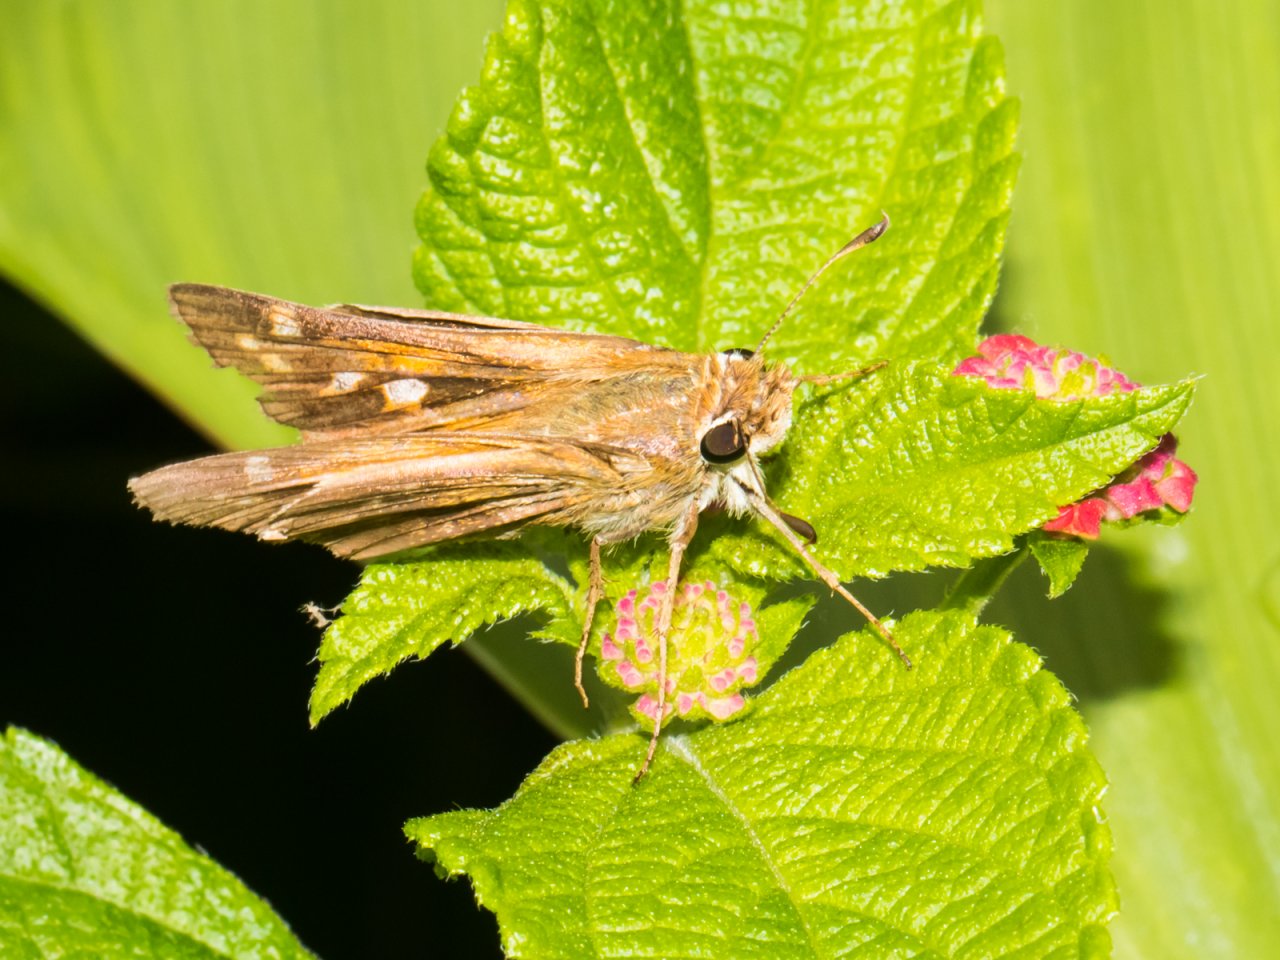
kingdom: Animalia
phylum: Arthropoda
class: Insecta
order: Lepidoptera
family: Hesperiidae
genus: Atalopedes
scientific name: Atalopedes campestris
